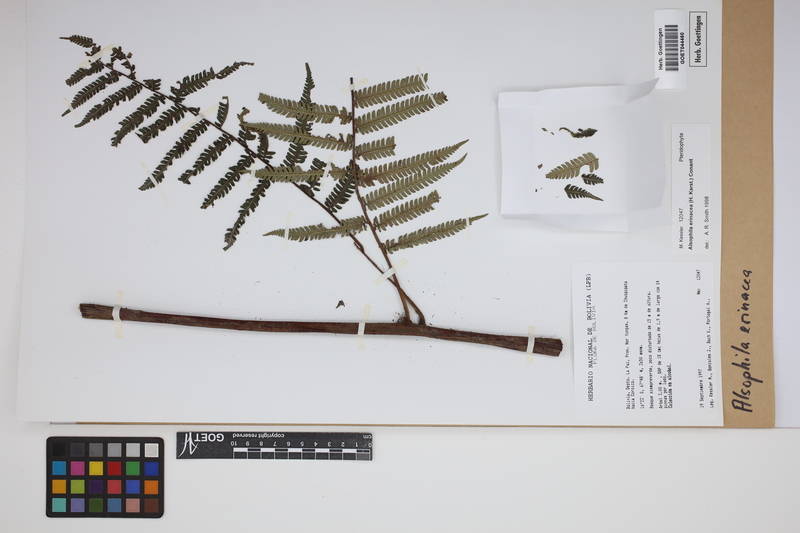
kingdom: Plantae
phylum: Tracheophyta
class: Polypodiopsida
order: Cyatheales
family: Cyatheaceae
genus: Alsophila
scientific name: Alsophila erinacea
